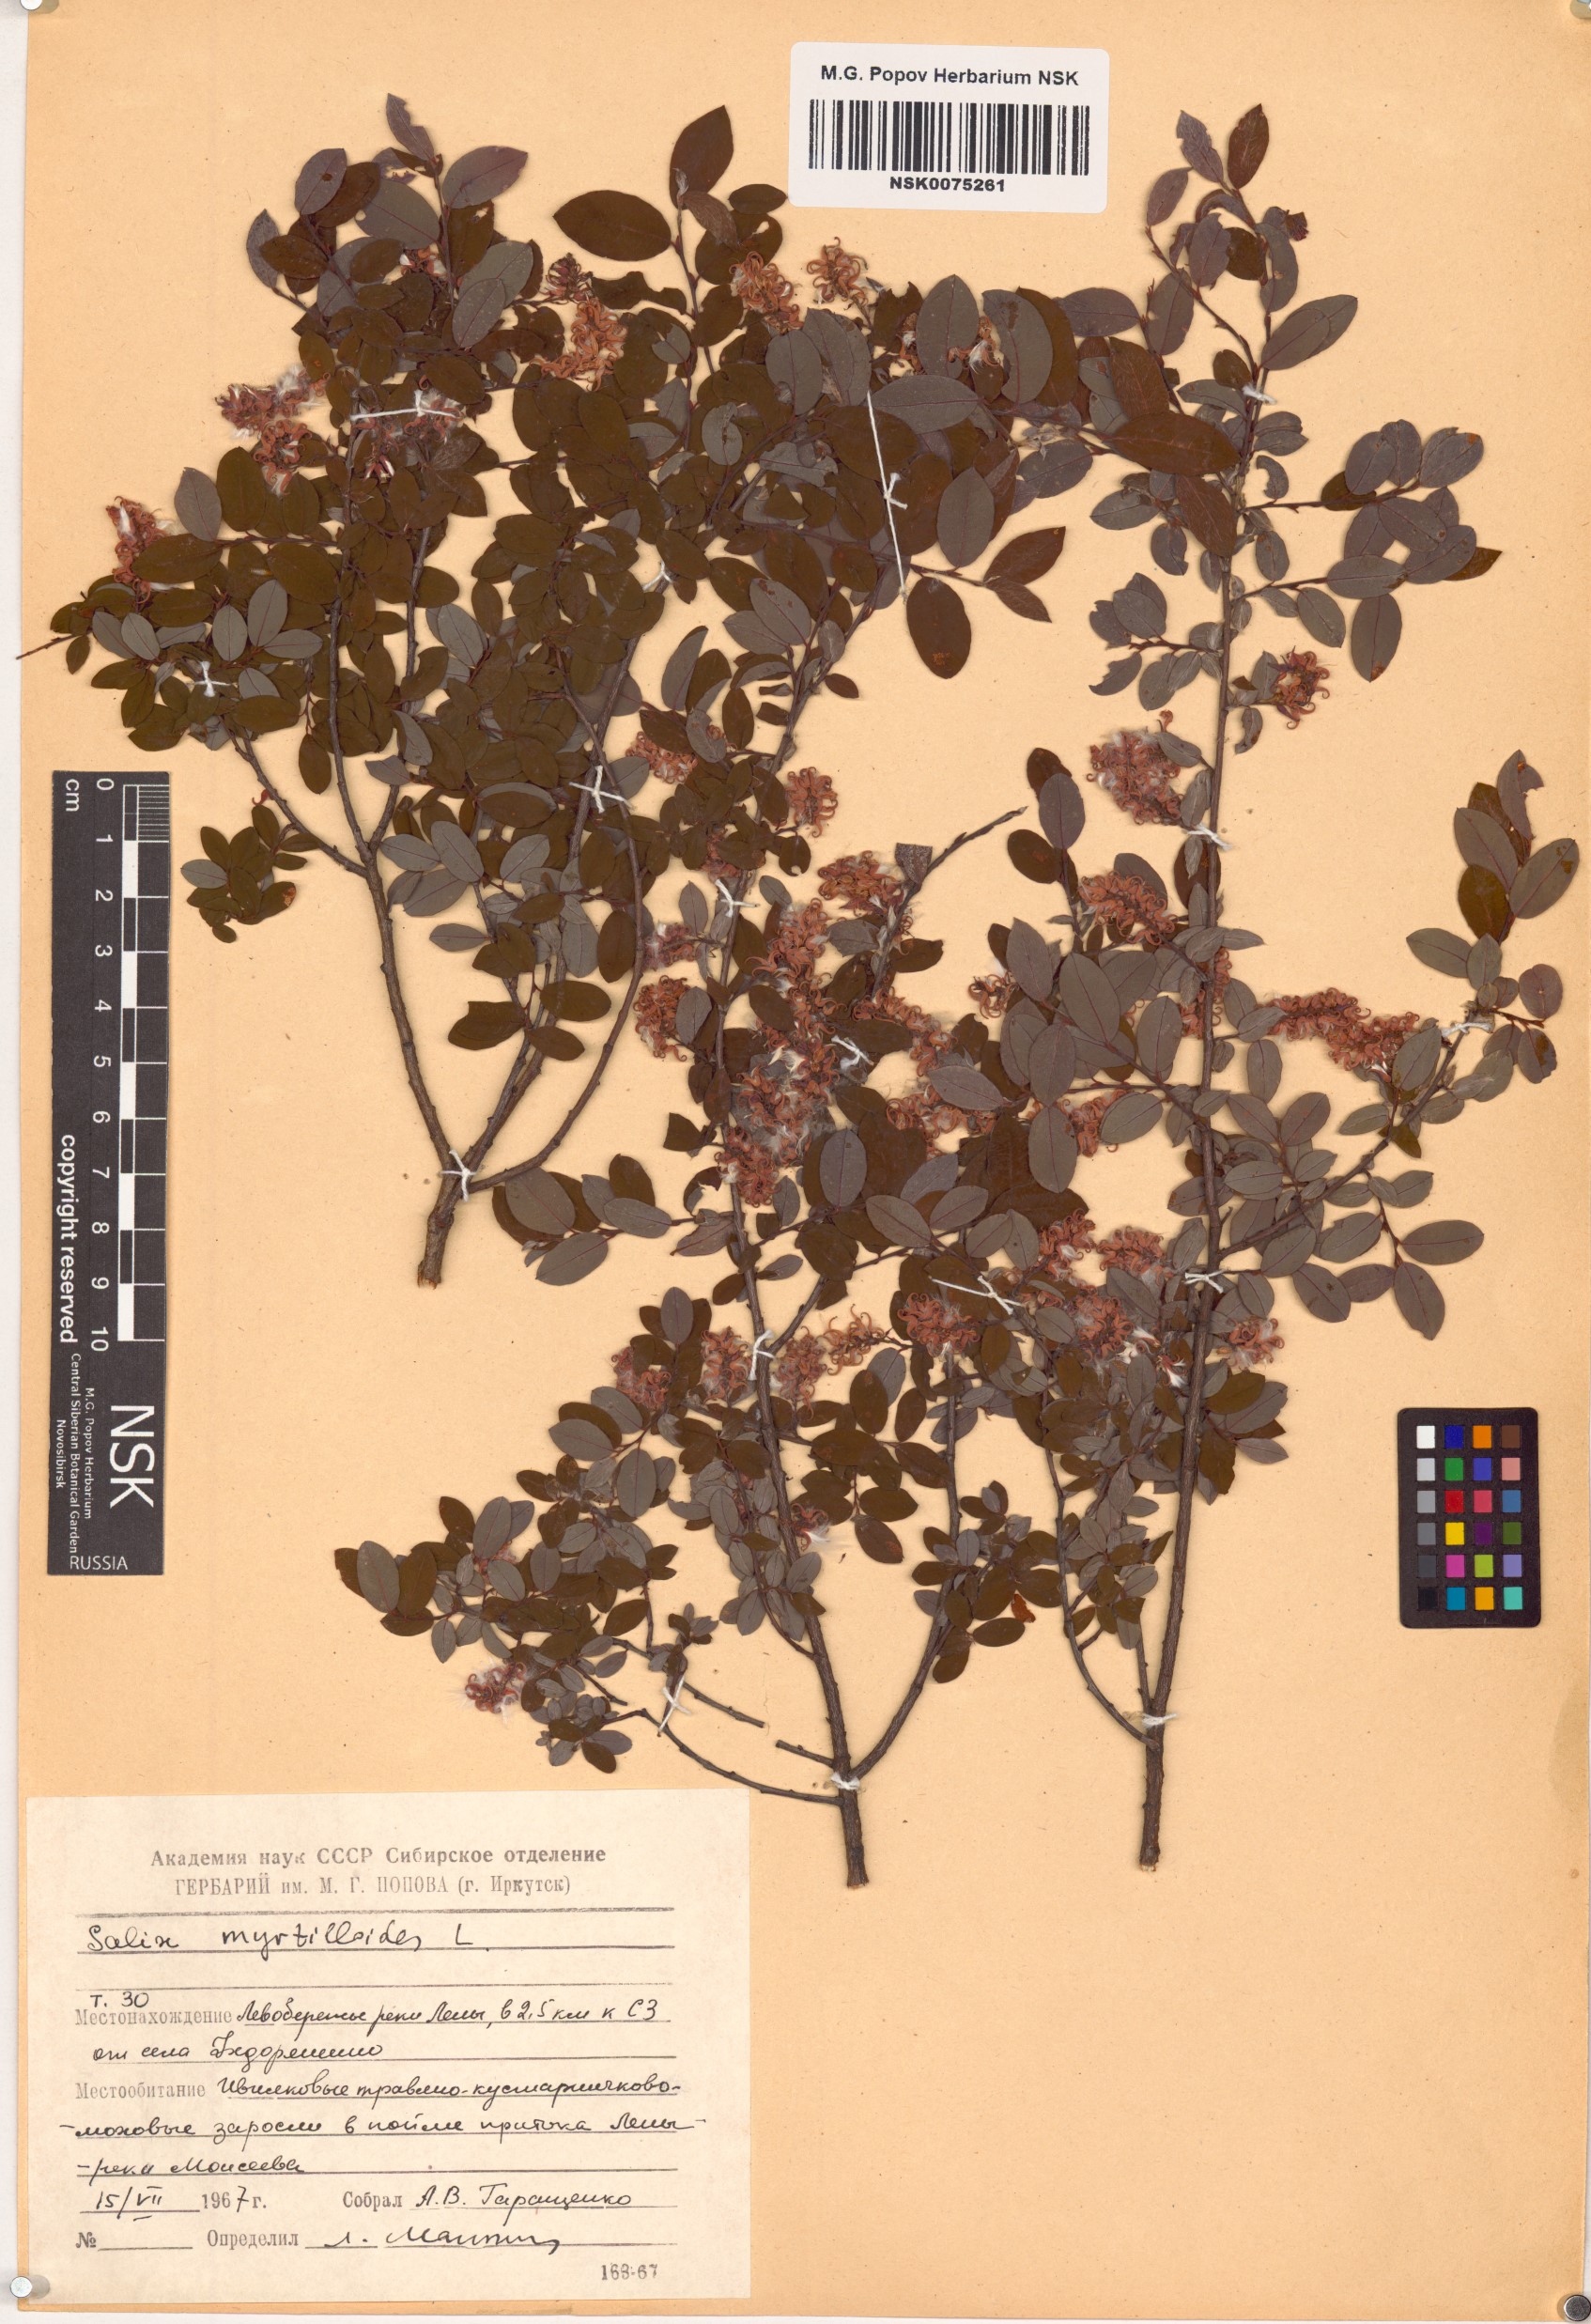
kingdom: Plantae
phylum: Tracheophyta
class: Magnoliopsida
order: Malpighiales
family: Salicaceae
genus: Salix
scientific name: Salix myrtilloides
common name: Myrtle-leaved willow
